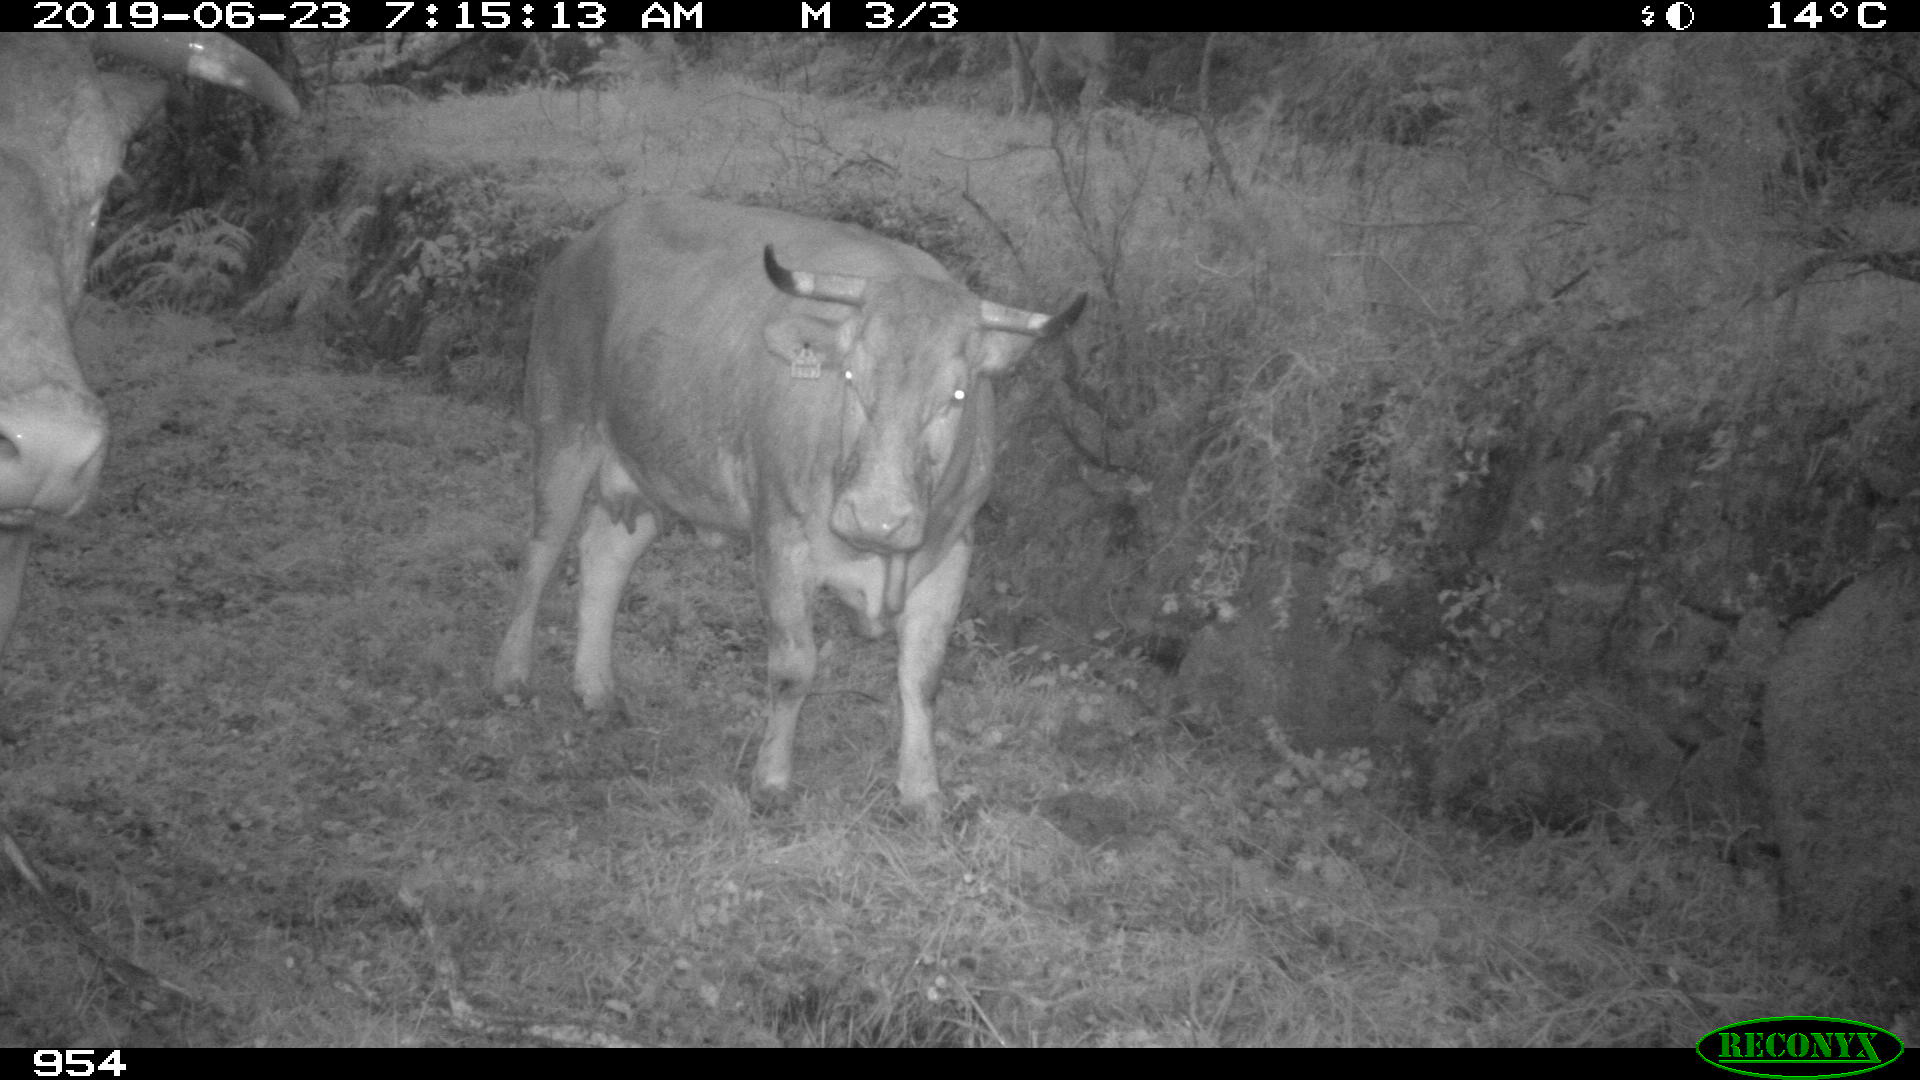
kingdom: Animalia
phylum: Chordata
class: Mammalia
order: Artiodactyla
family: Bovidae
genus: Bos
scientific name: Bos taurus
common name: Domesticated cattle
